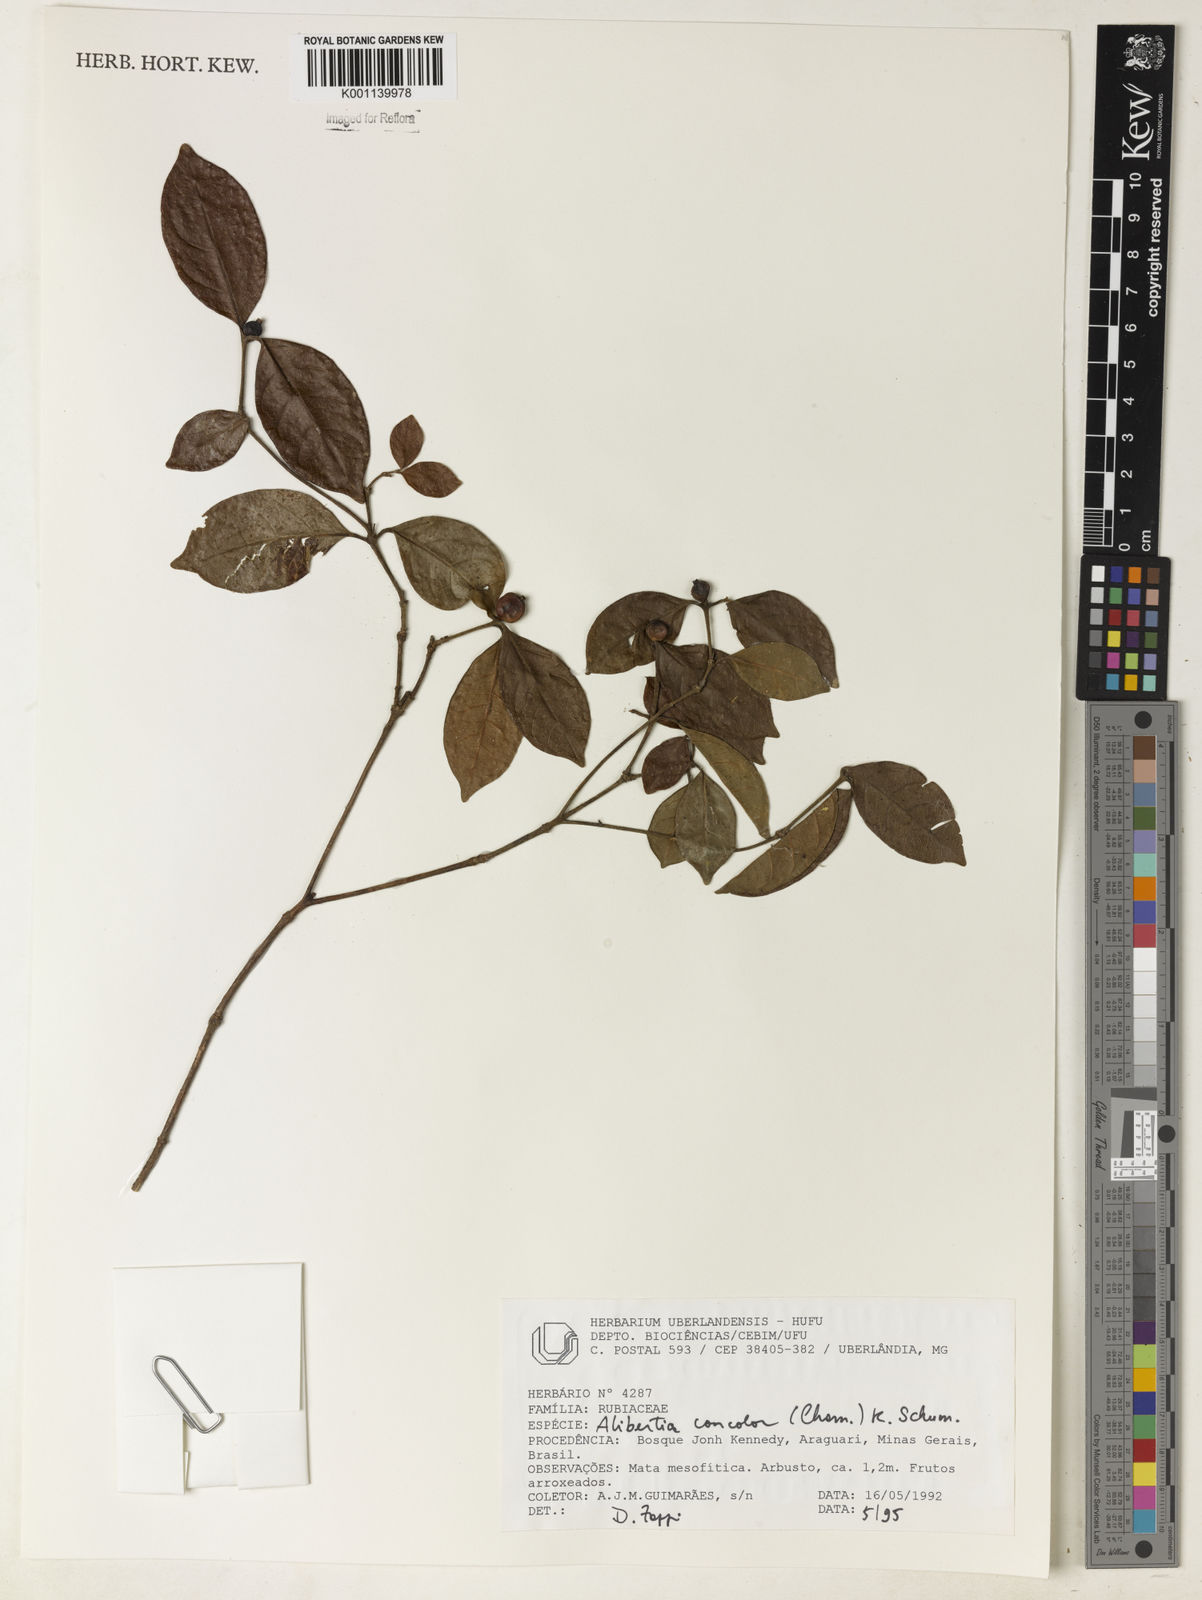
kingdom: Plantae
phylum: Tracheophyta
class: Magnoliopsida
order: Gentianales
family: Rubiaceae
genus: Cordiera
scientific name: Cordiera concolor
